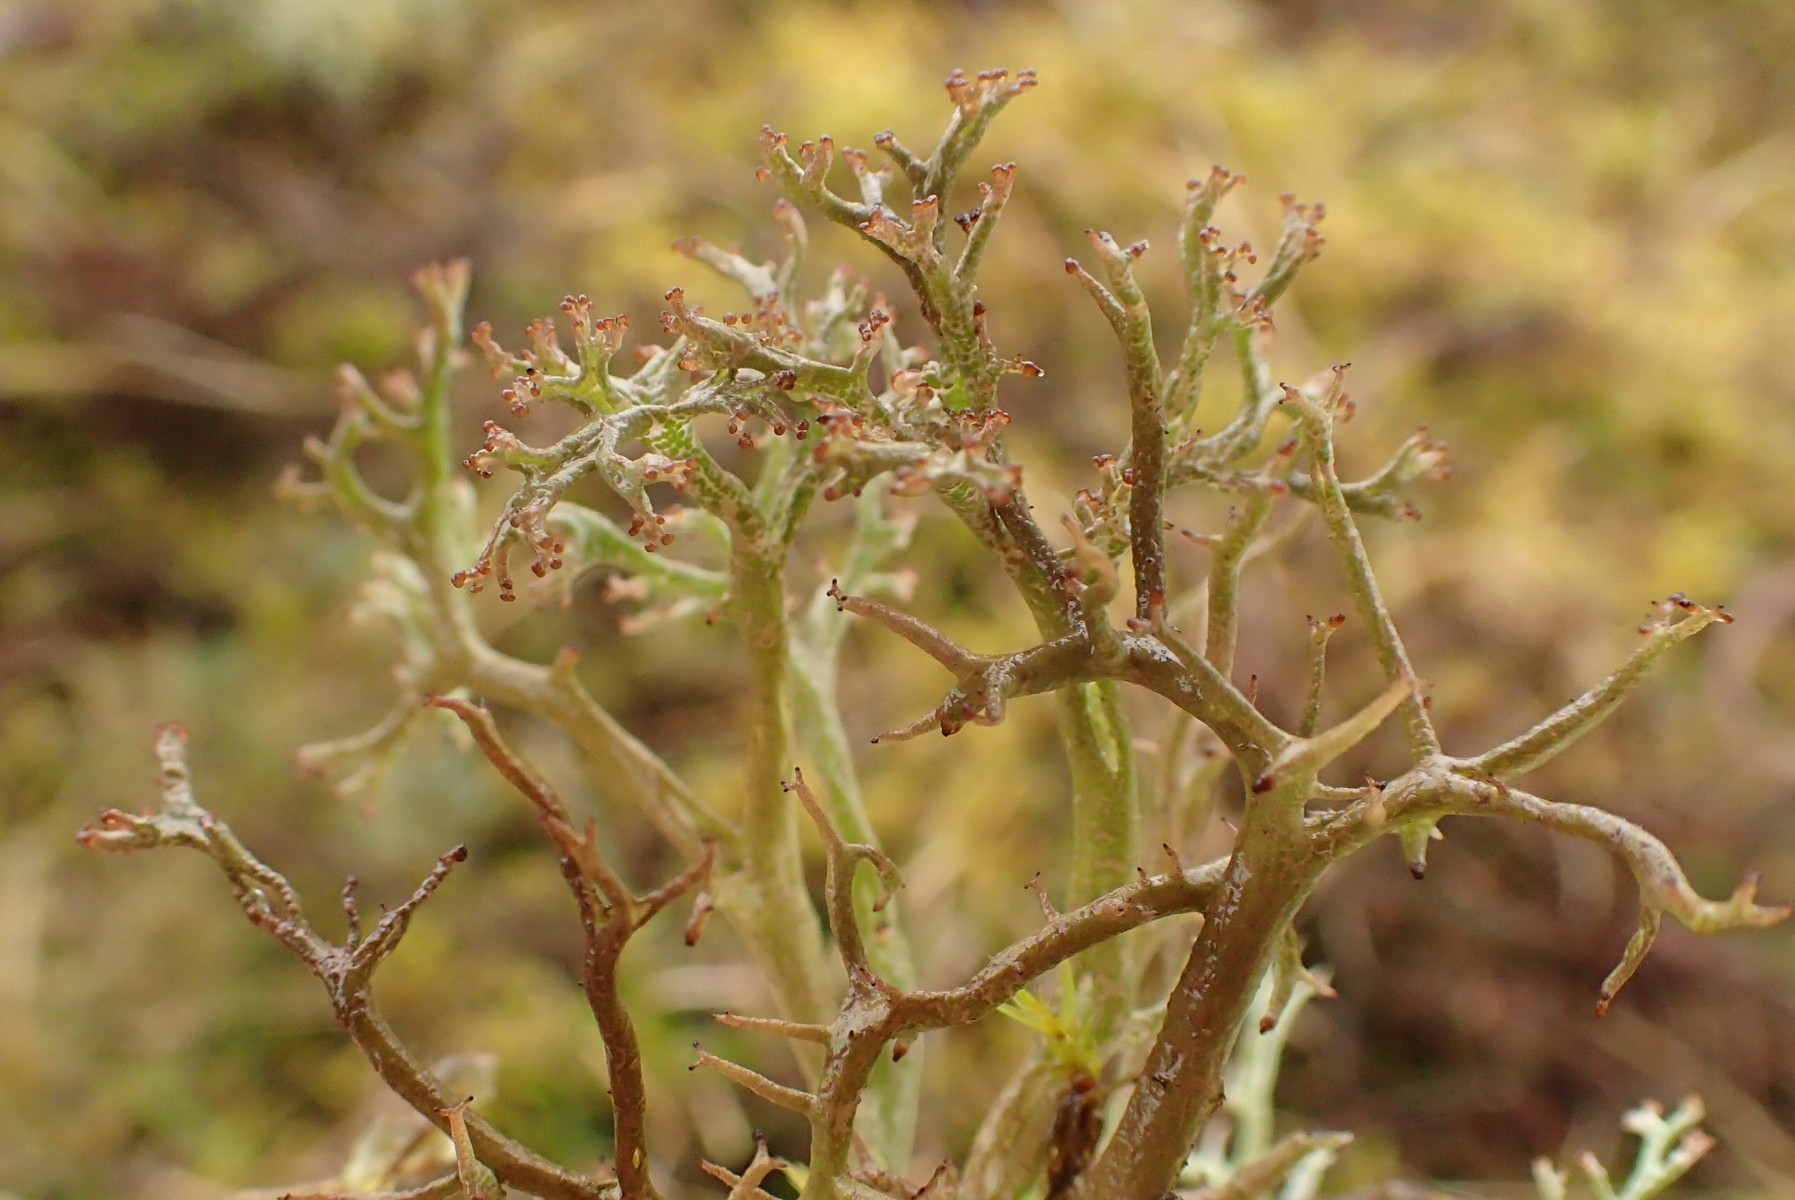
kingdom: Fungi
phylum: Ascomycota
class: Lecanoromycetes
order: Lecanorales
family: Cladoniaceae
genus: Cladonia
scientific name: Cladonia furcata
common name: kløftet bægerlav
